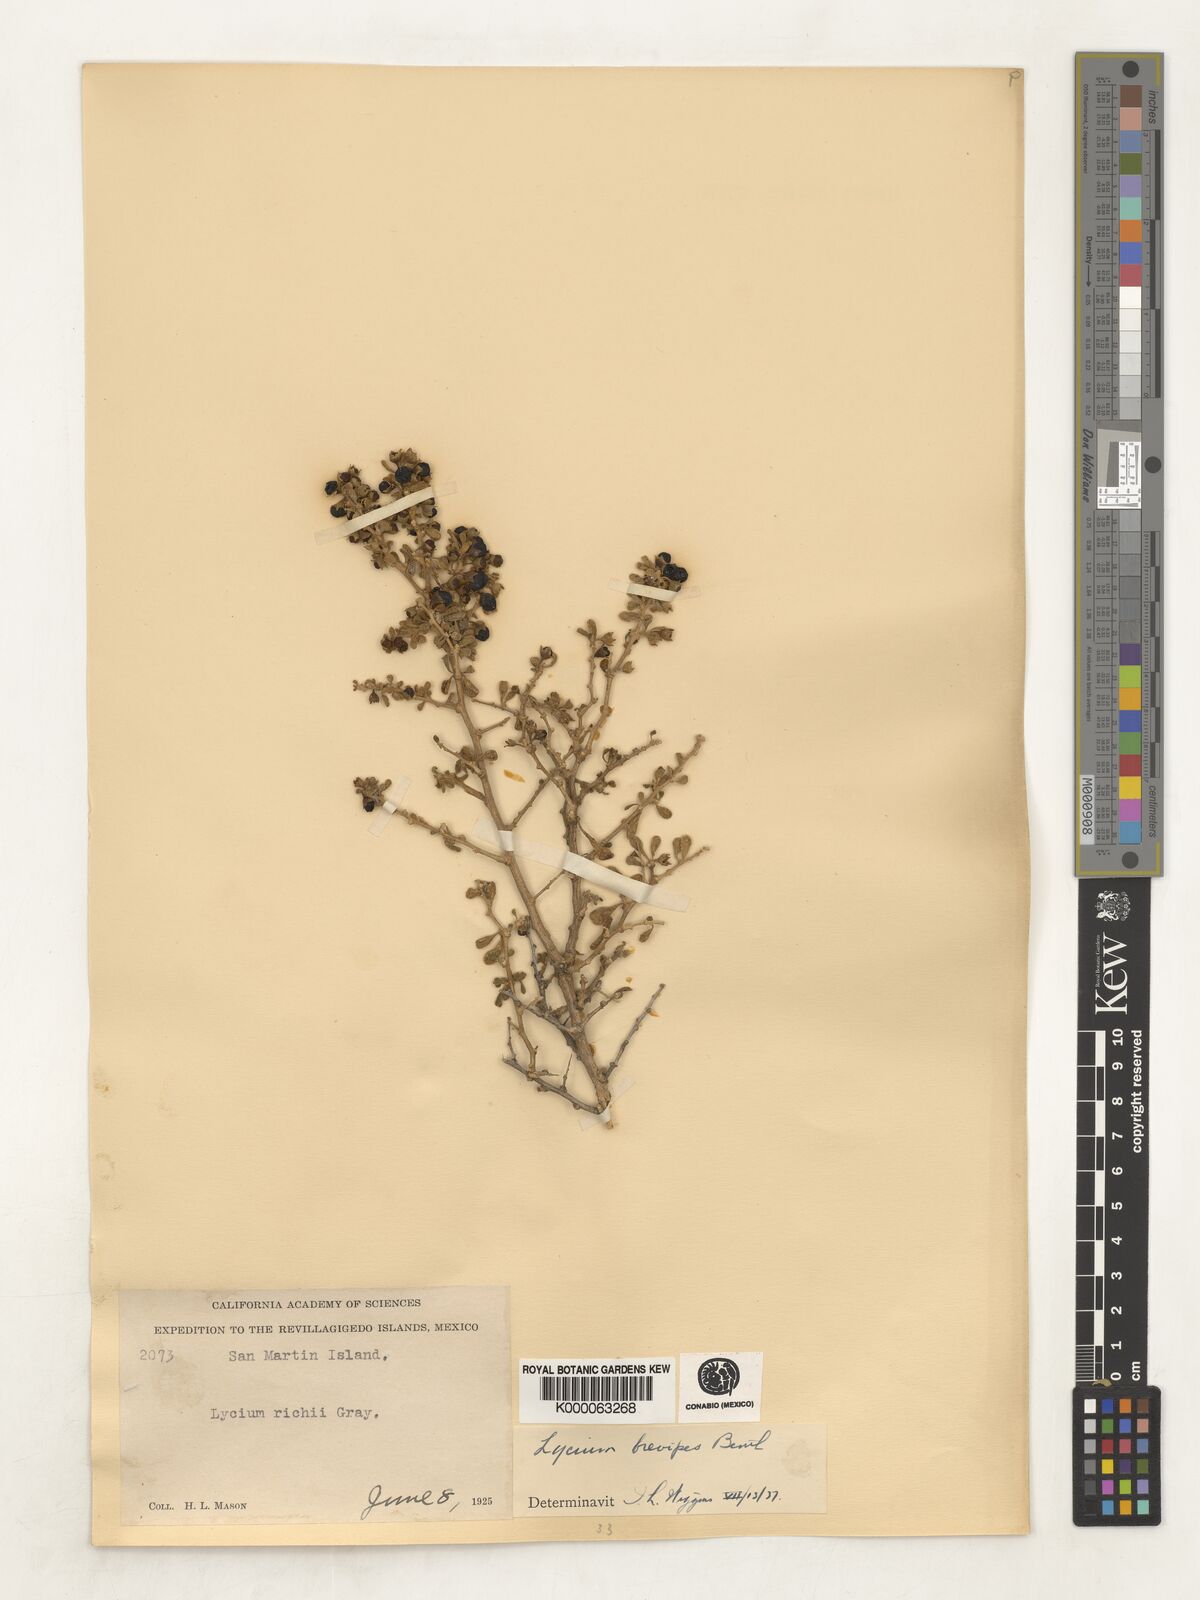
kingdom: Plantae
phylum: Tracheophyta
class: Magnoliopsida
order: Solanales
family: Solanaceae
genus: Lycium
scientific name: Lycium brevipes
